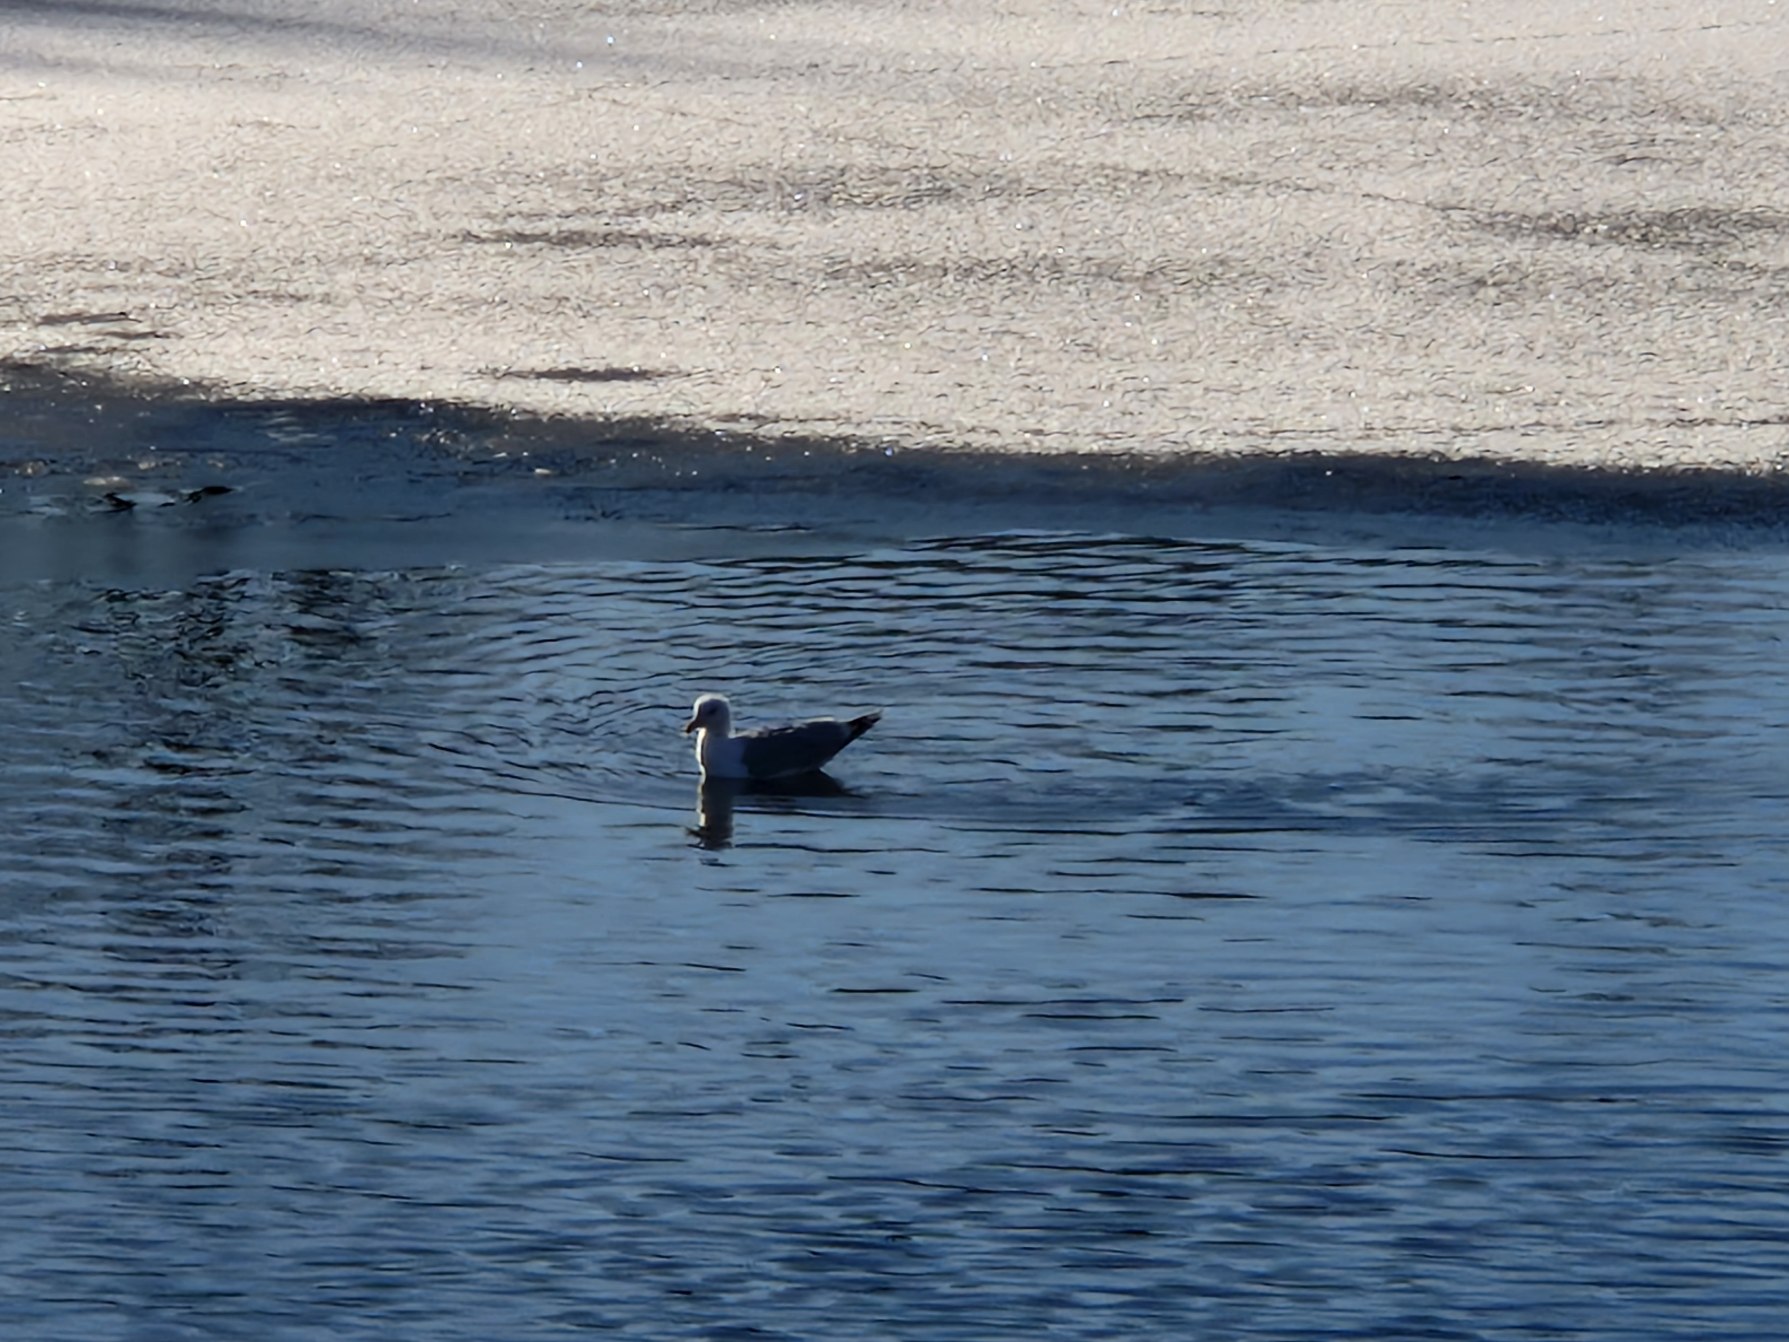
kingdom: Animalia
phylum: Chordata
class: Aves
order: Charadriiformes
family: Laridae
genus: Larus
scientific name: Larus argentatus
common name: Sølvmåge
